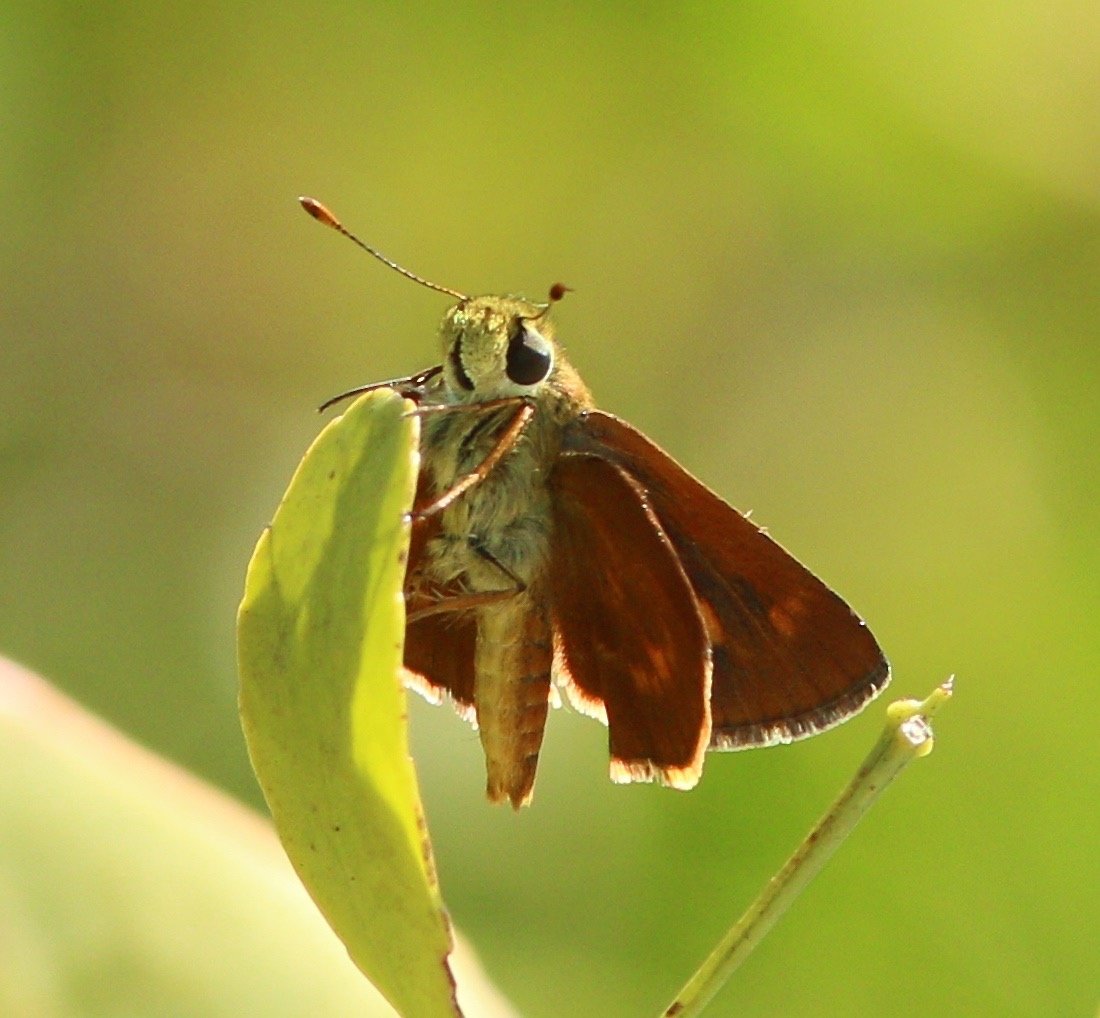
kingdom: Animalia
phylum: Arthropoda
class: Insecta
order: Lepidoptera
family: Hesperiidae
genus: Wallengrenia
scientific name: Wallengrenia otho
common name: Southern Broken-Dash
